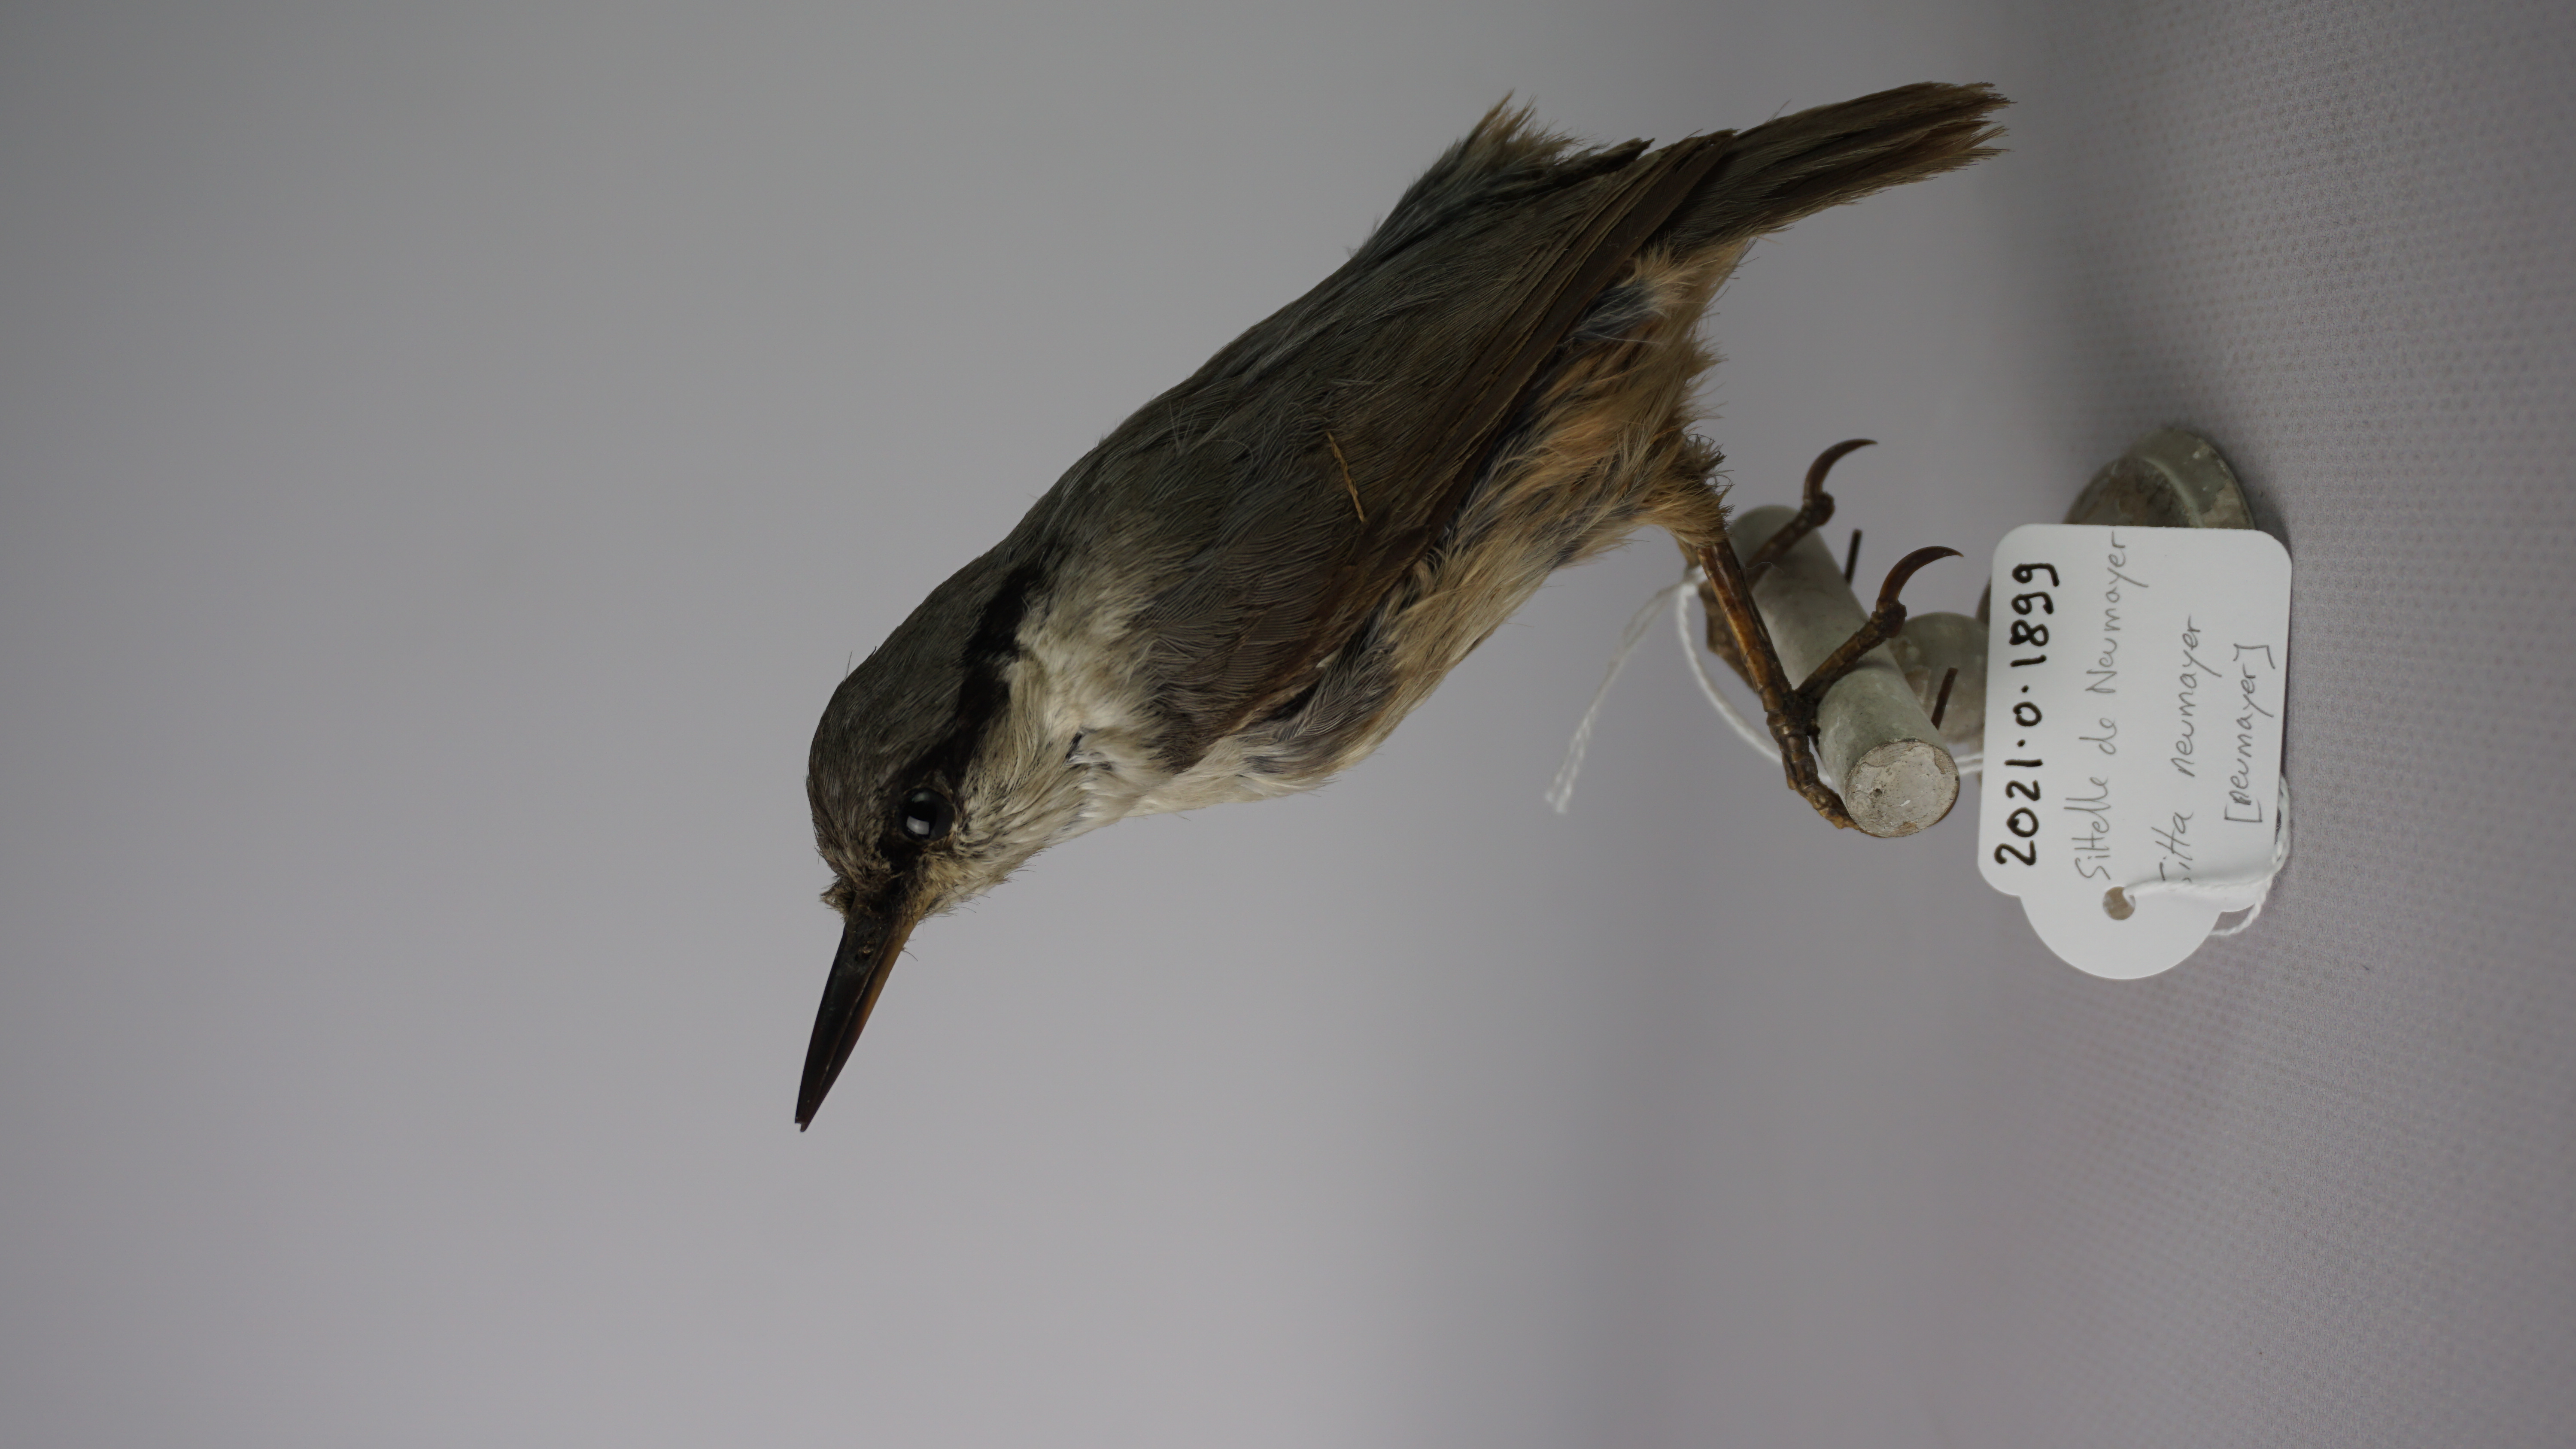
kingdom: Animalia
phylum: Chordata
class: Aves
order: Passeriformes
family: Sittidae
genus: Sitta
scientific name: Sitta neumayer
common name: Western rock nuthatch
